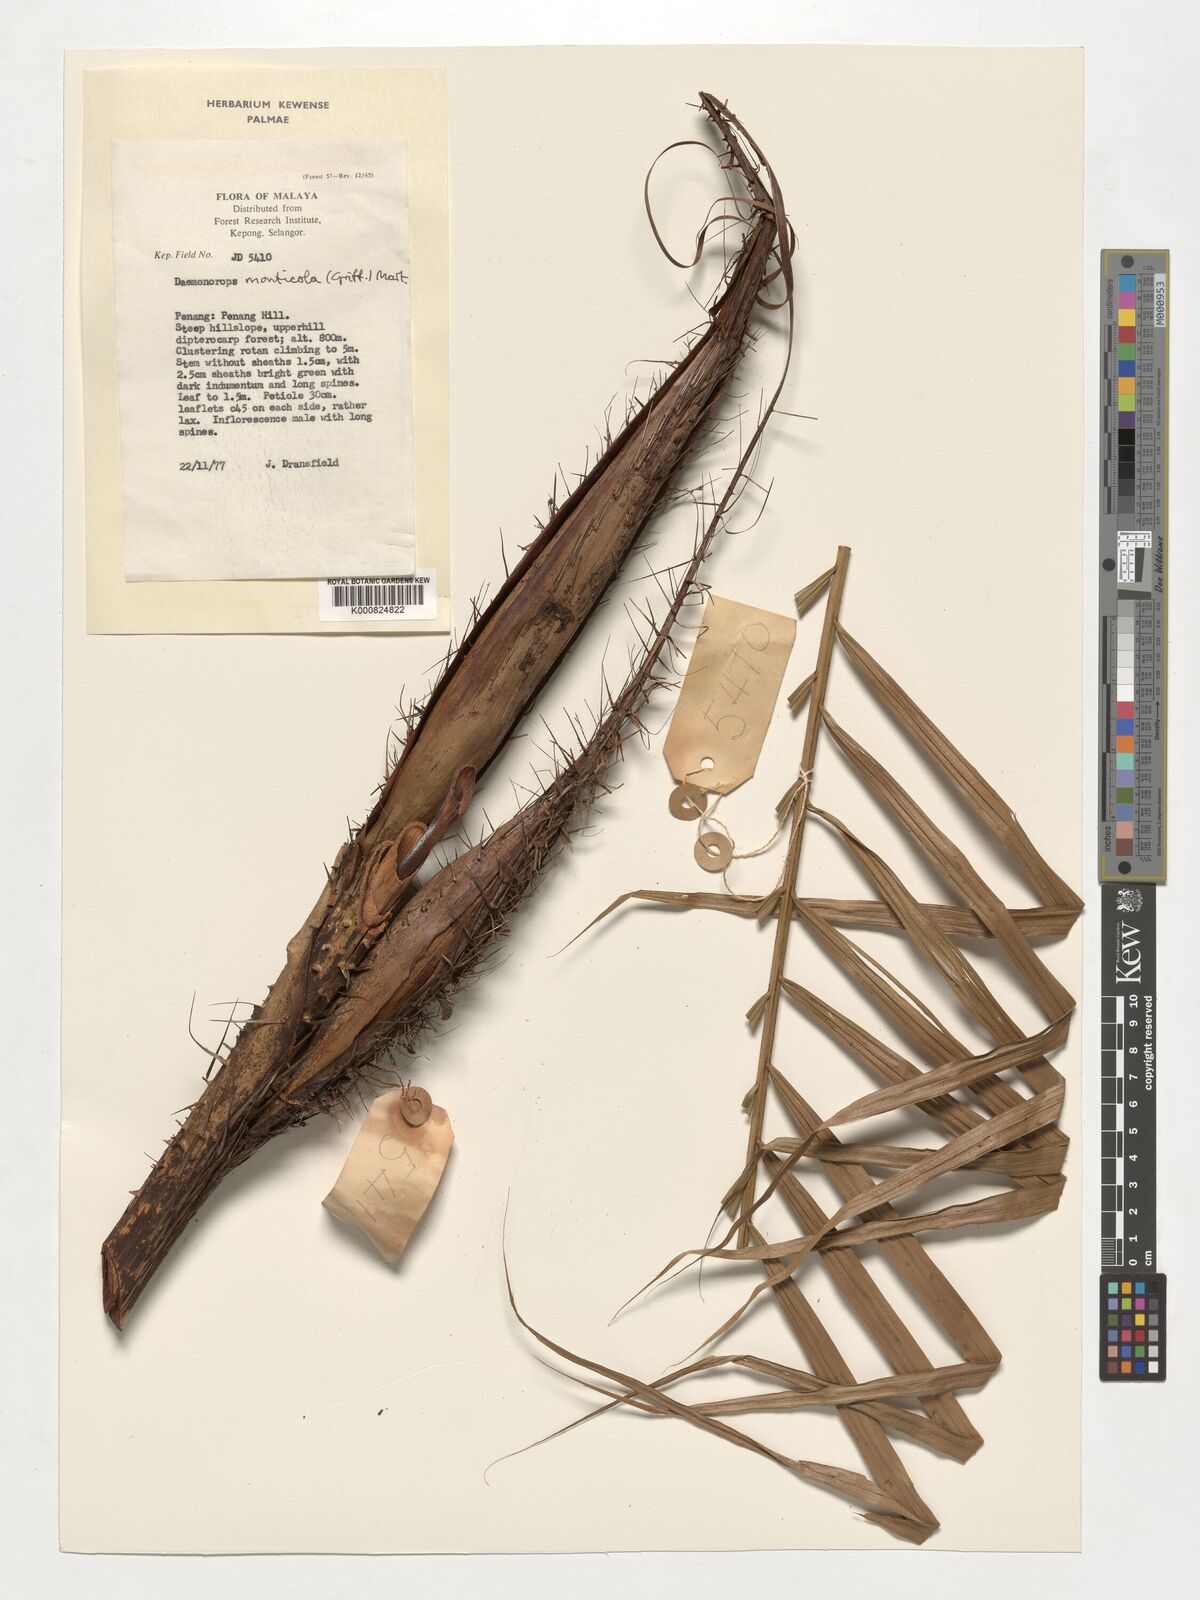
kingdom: Plantae
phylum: Tracheophyta
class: Liliopsida
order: Arecales
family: Arecaceae
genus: Calamus
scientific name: Calamus melanochaetes
